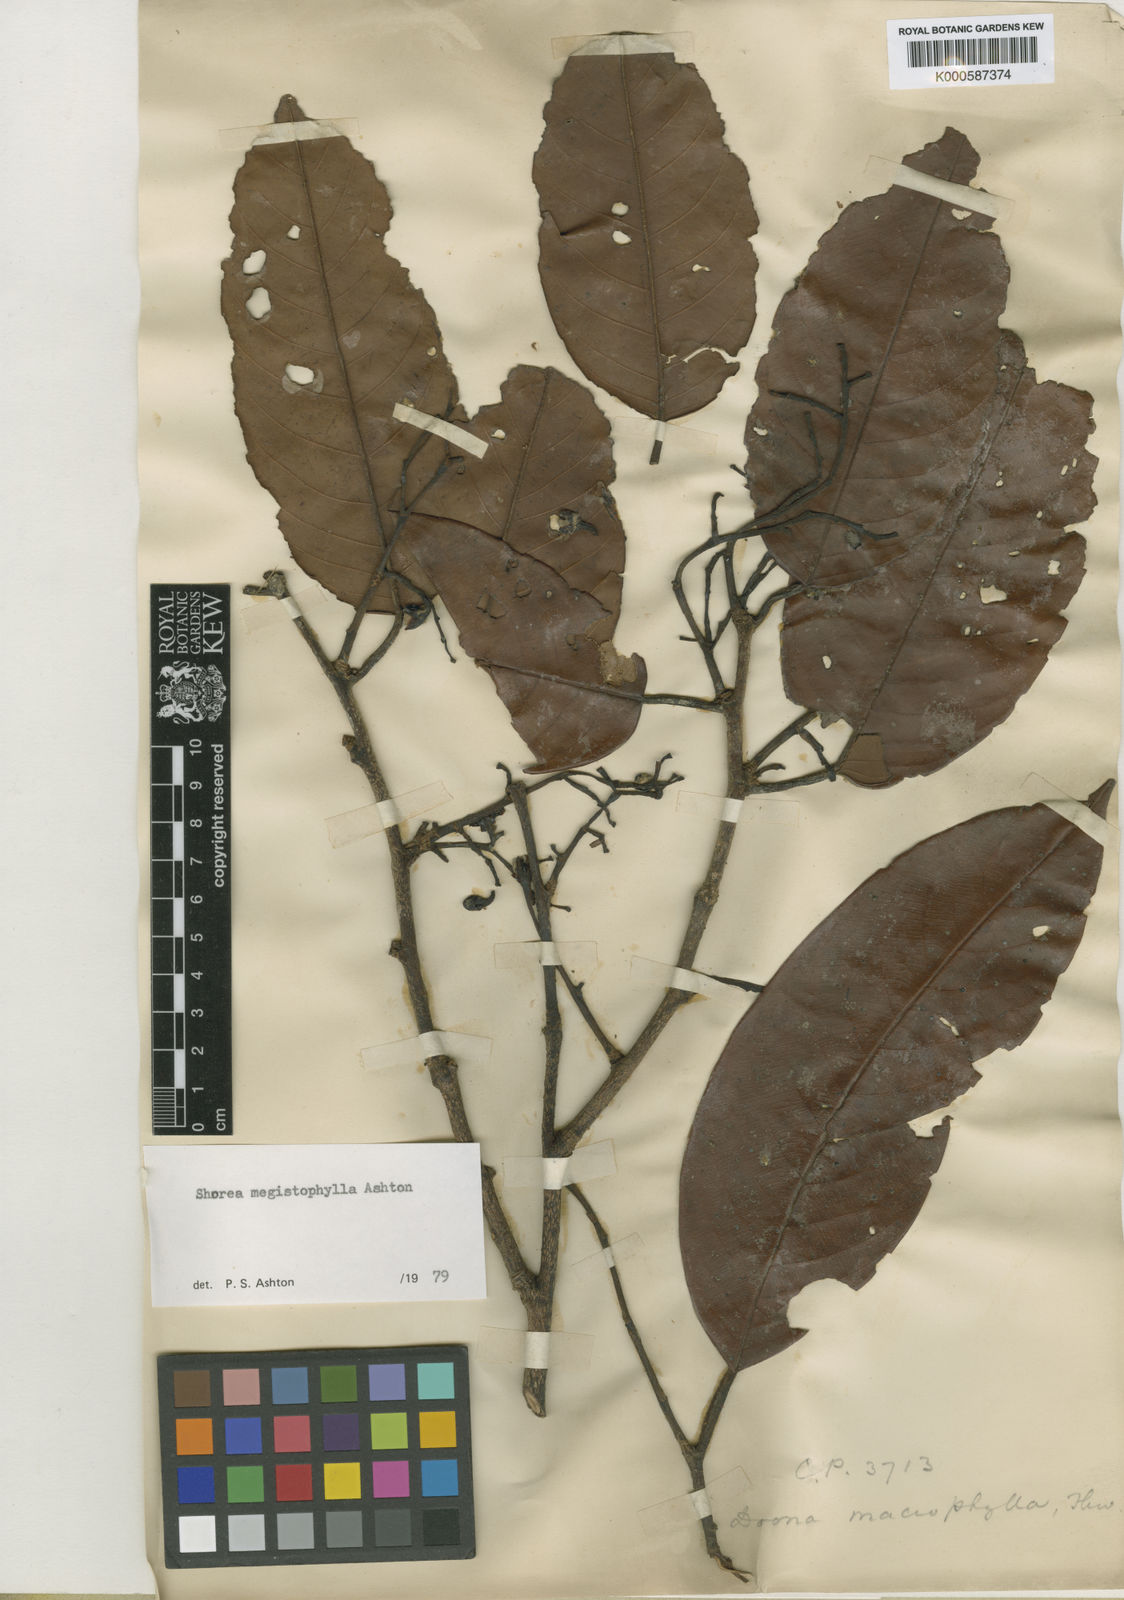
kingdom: Plantae
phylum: Tracheophyta
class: Magnoliopsida
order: Malvales
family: Dipterocarpaceae
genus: Doona
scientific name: Doona macrophylla
